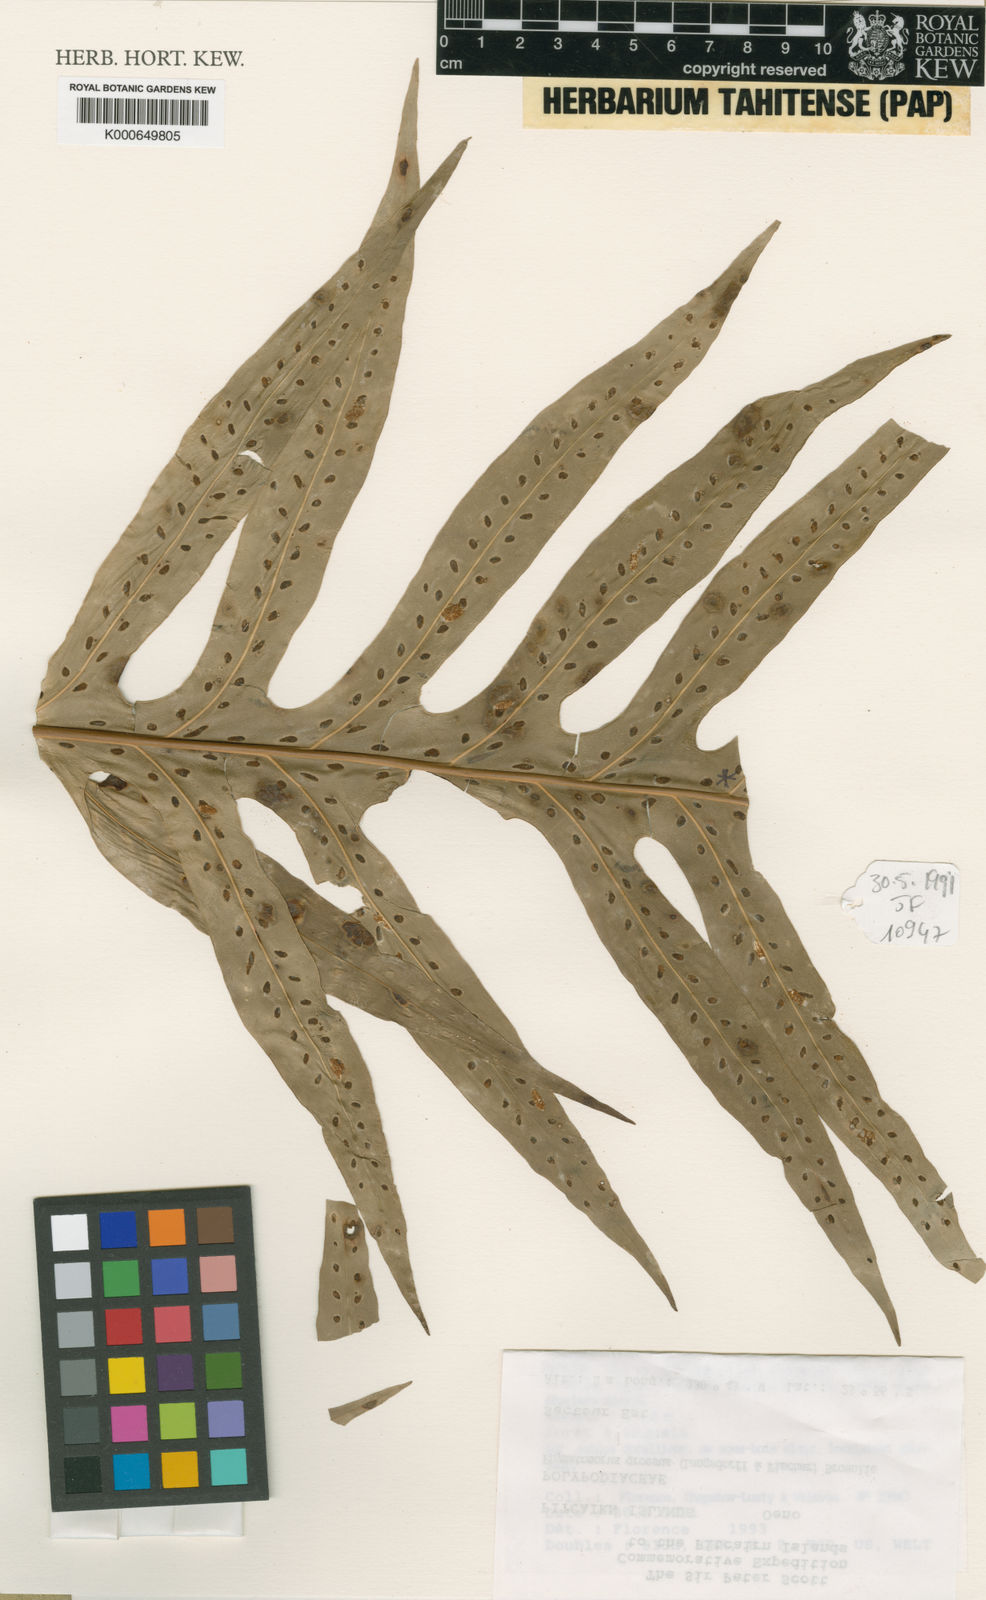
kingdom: Plantae
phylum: Tracheophyta
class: Polypodiopsida
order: Polypodiales
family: Polypodiaceae
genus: Microsorum
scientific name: Microsorum grossum
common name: Musk fern
